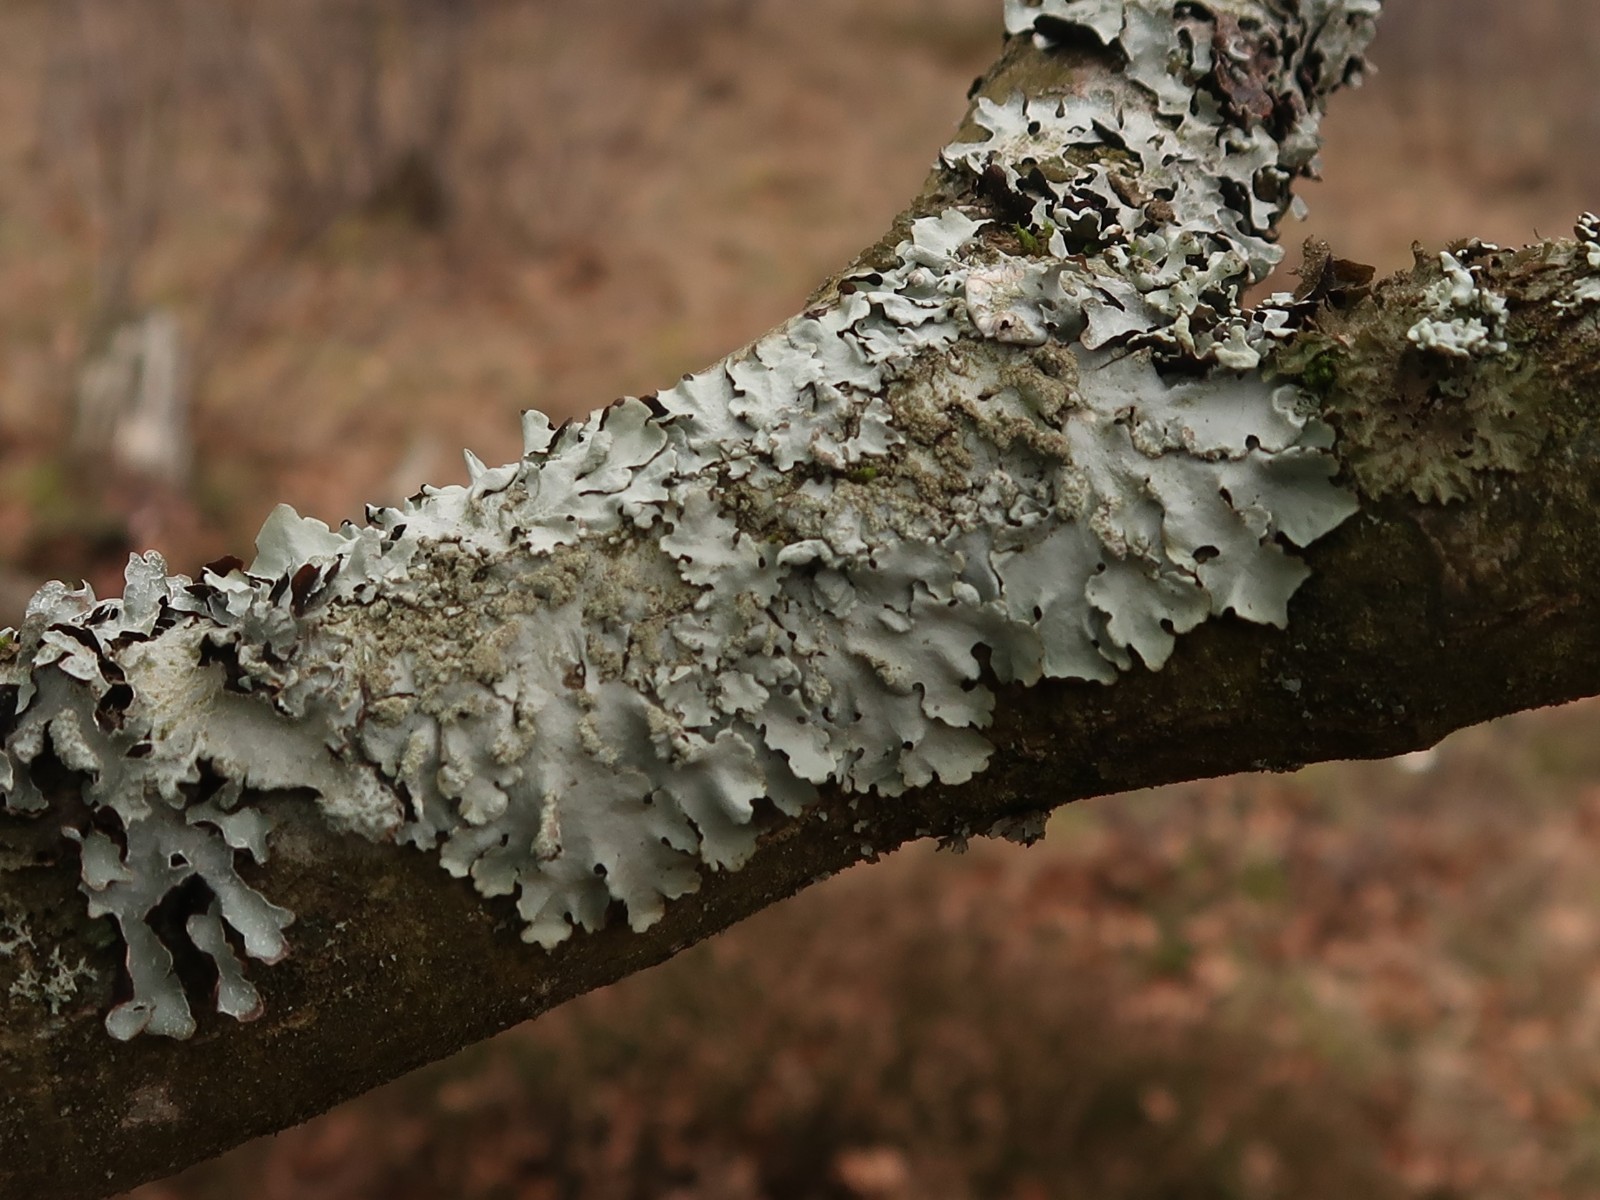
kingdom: Fungi
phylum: Ascomycota
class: Lecanoromycetes
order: Lecanorales
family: Parmeliaceae
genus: Hypotrachyna
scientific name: Hypotrachyna afrorevoluta
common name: kyst-skållav
